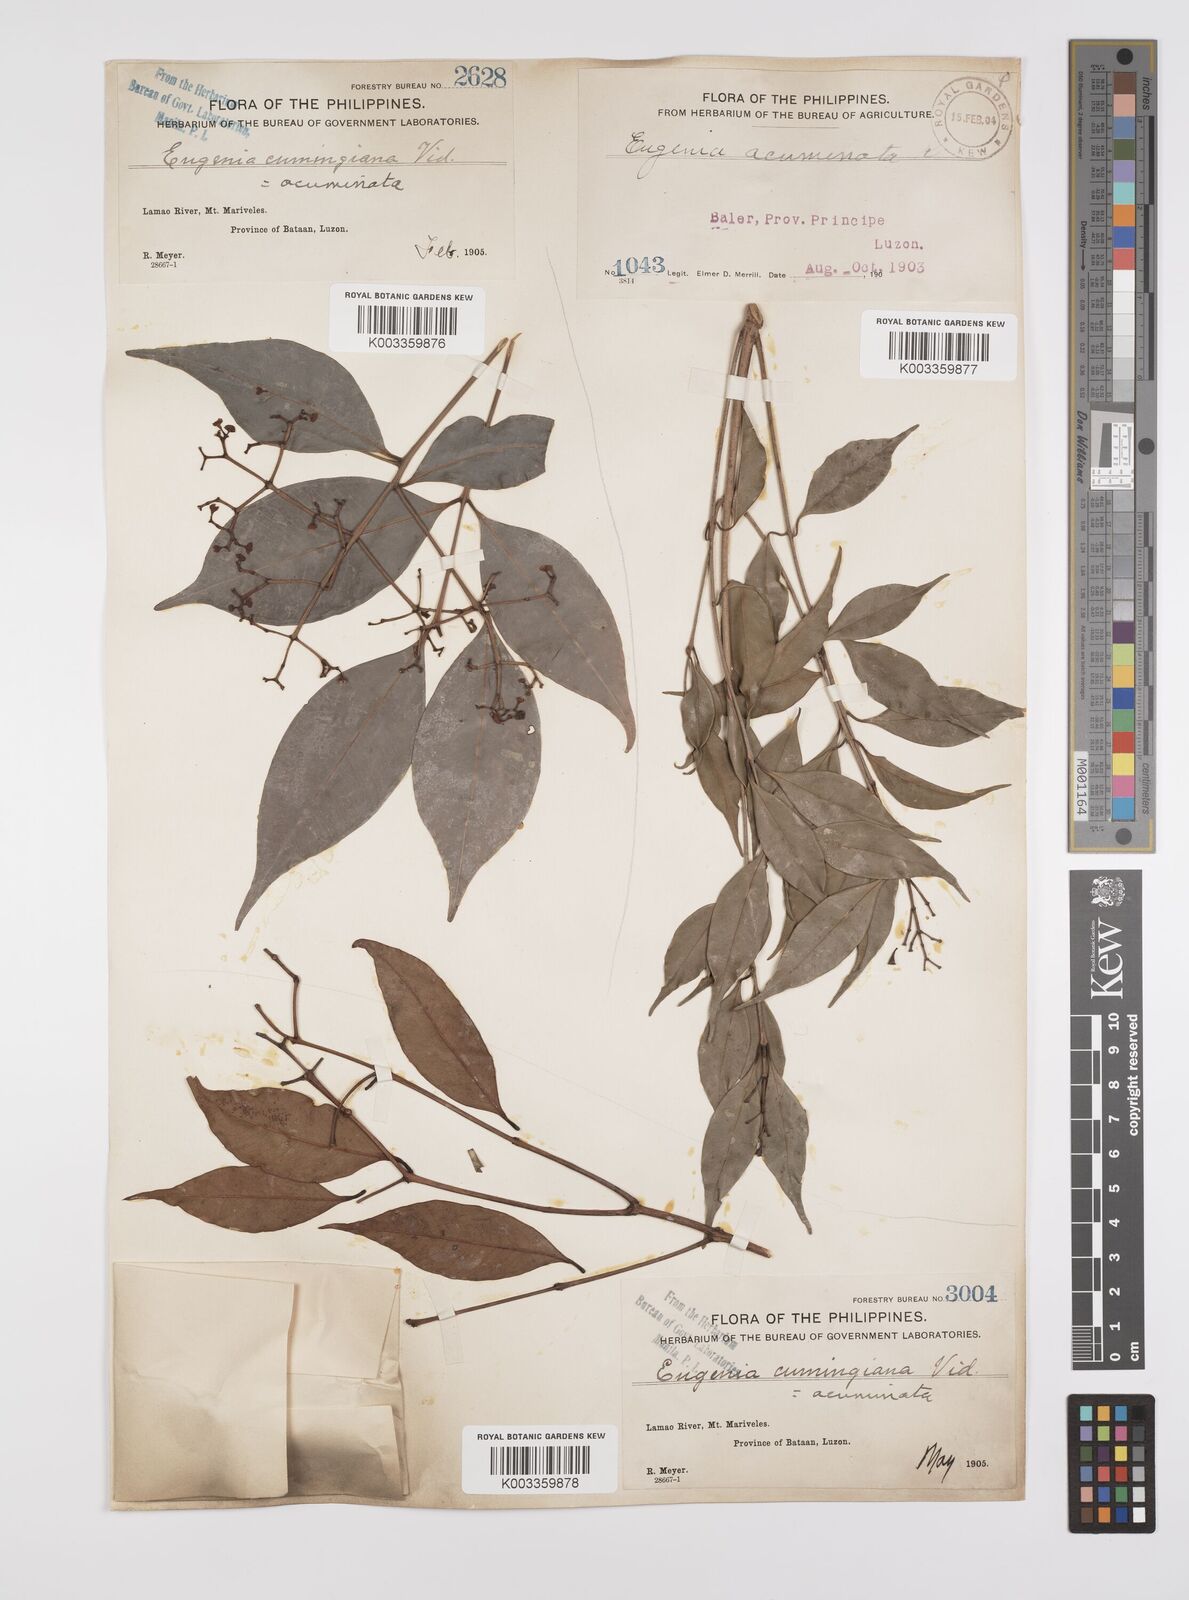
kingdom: Plantae
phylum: Tracheophyta
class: Magnoliopsida
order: Myrtales
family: Myrtaceae
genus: Syzygium
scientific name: Syzygium
